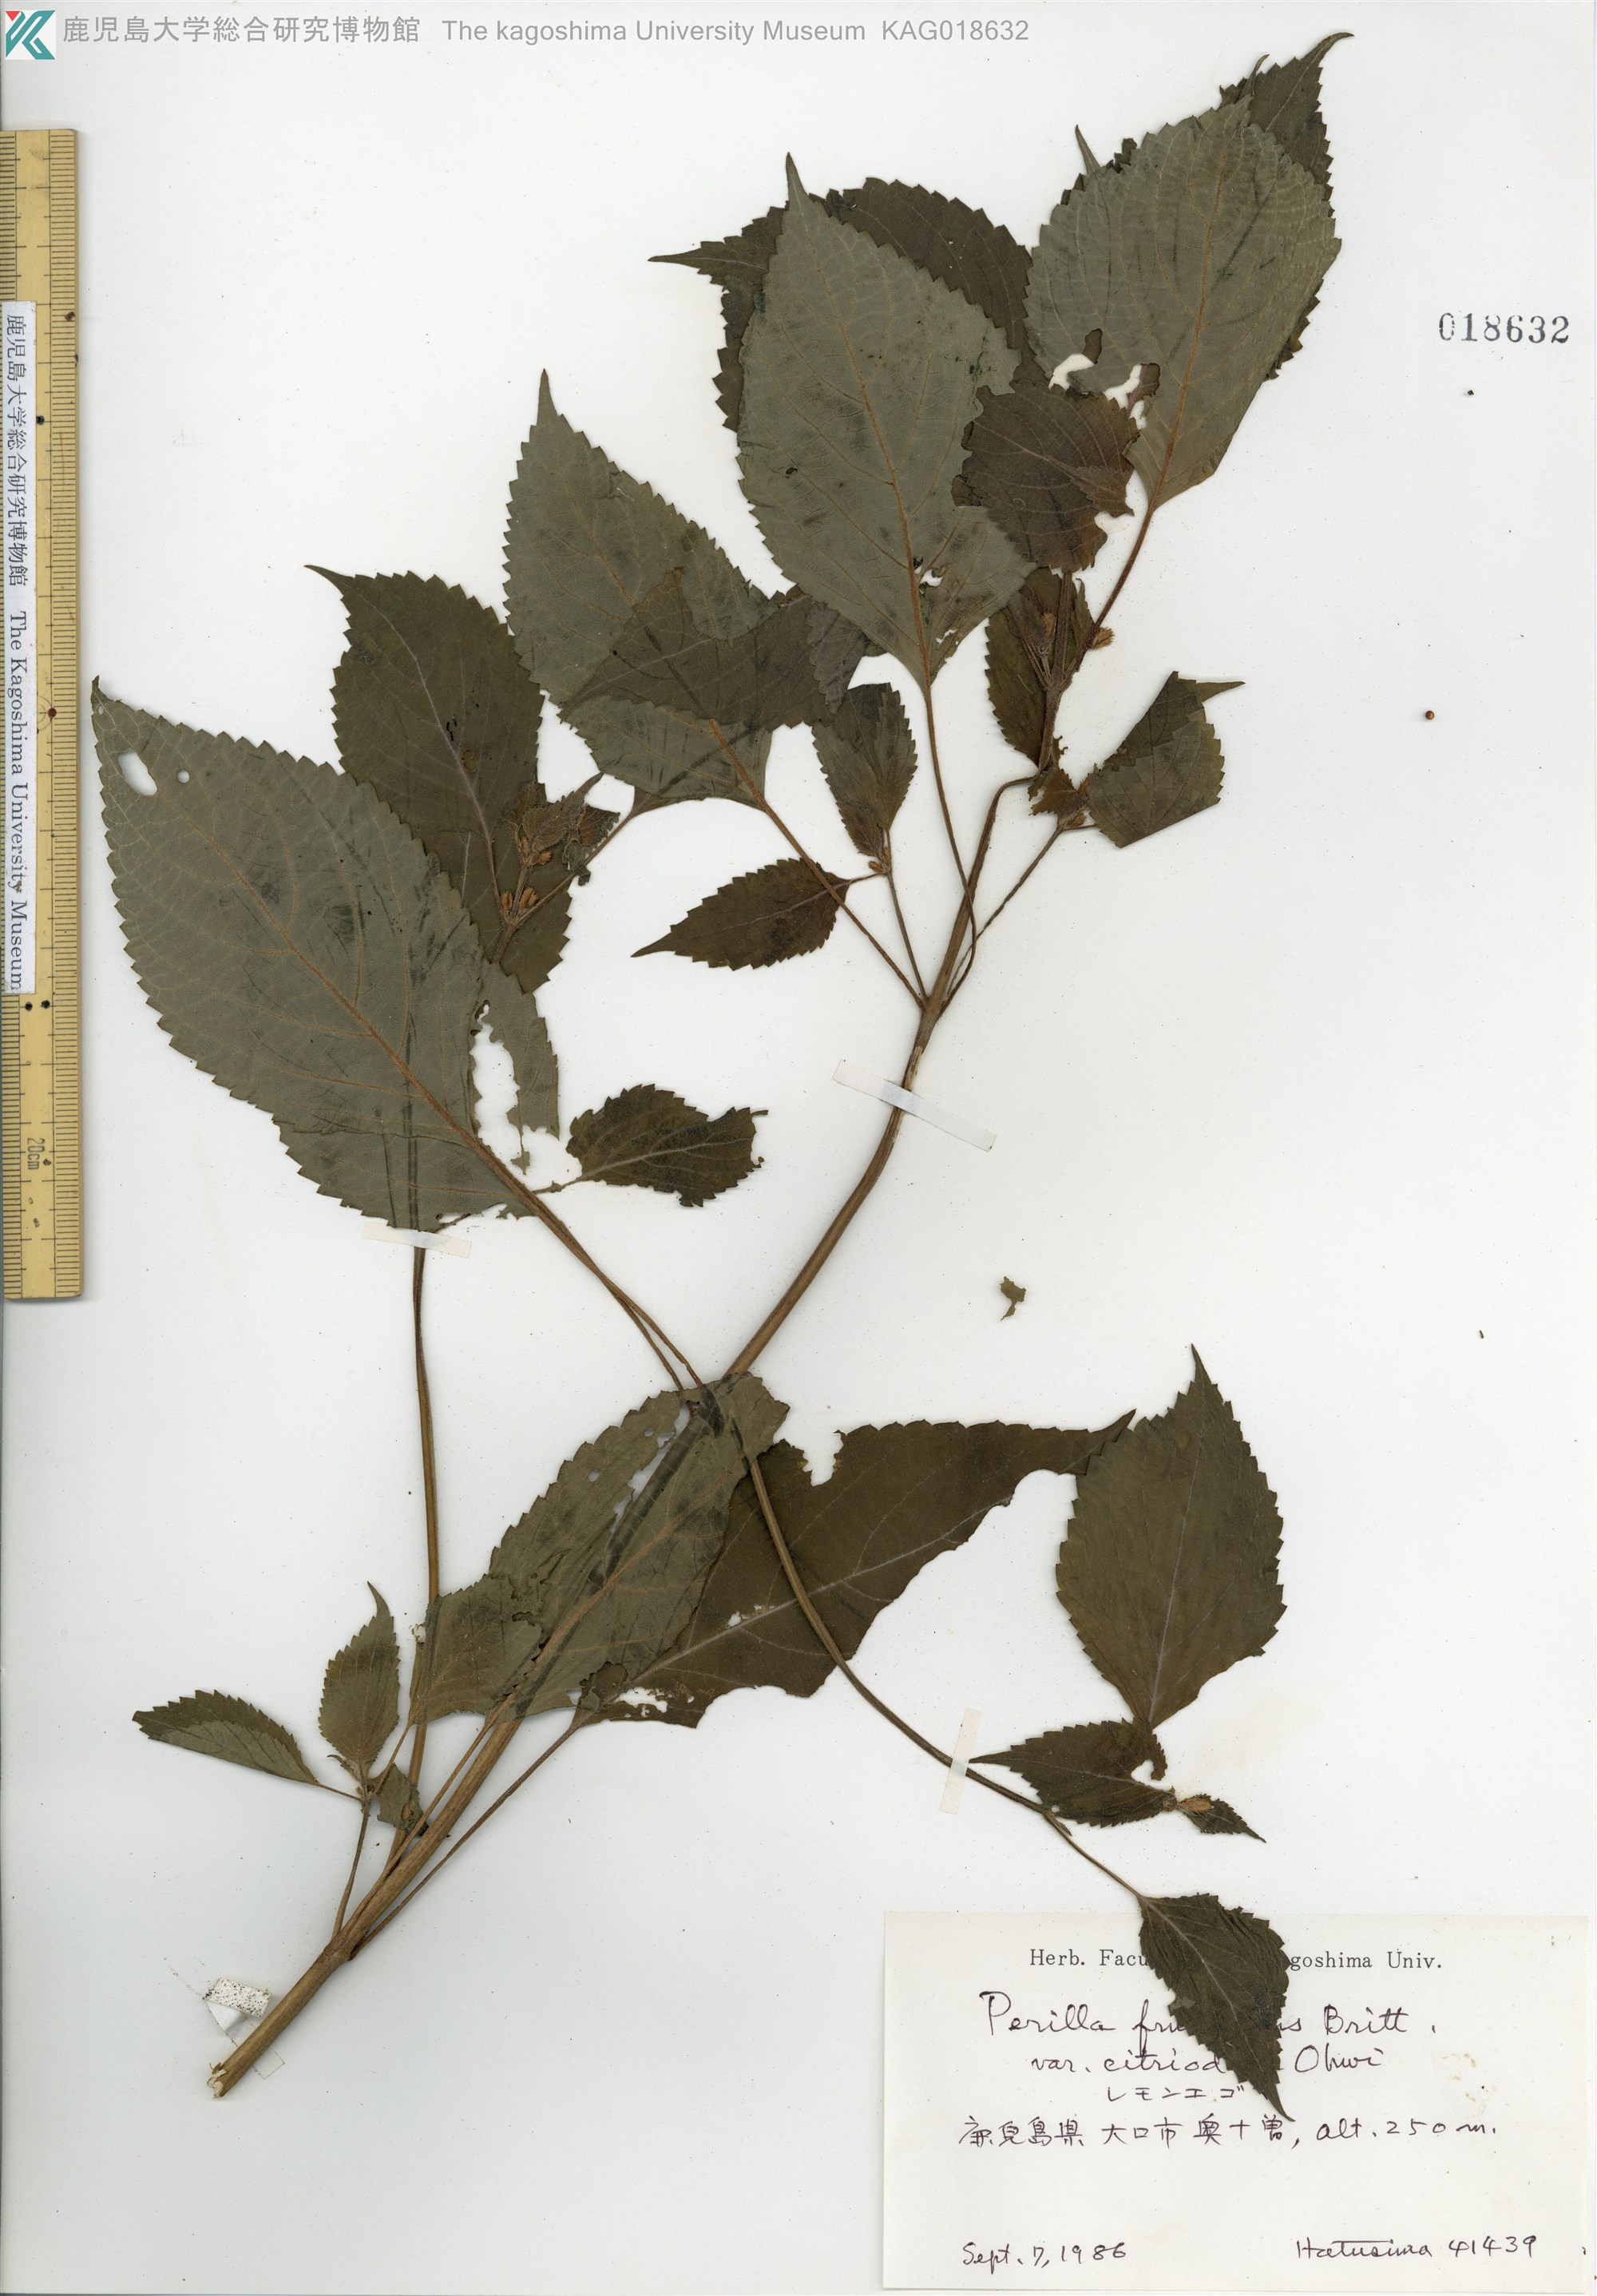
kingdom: Plantae
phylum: Tracheophyta
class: Magnoliopsida
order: Lamiales
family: Lamiaceae
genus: Perilla
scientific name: Perilla frutescens
